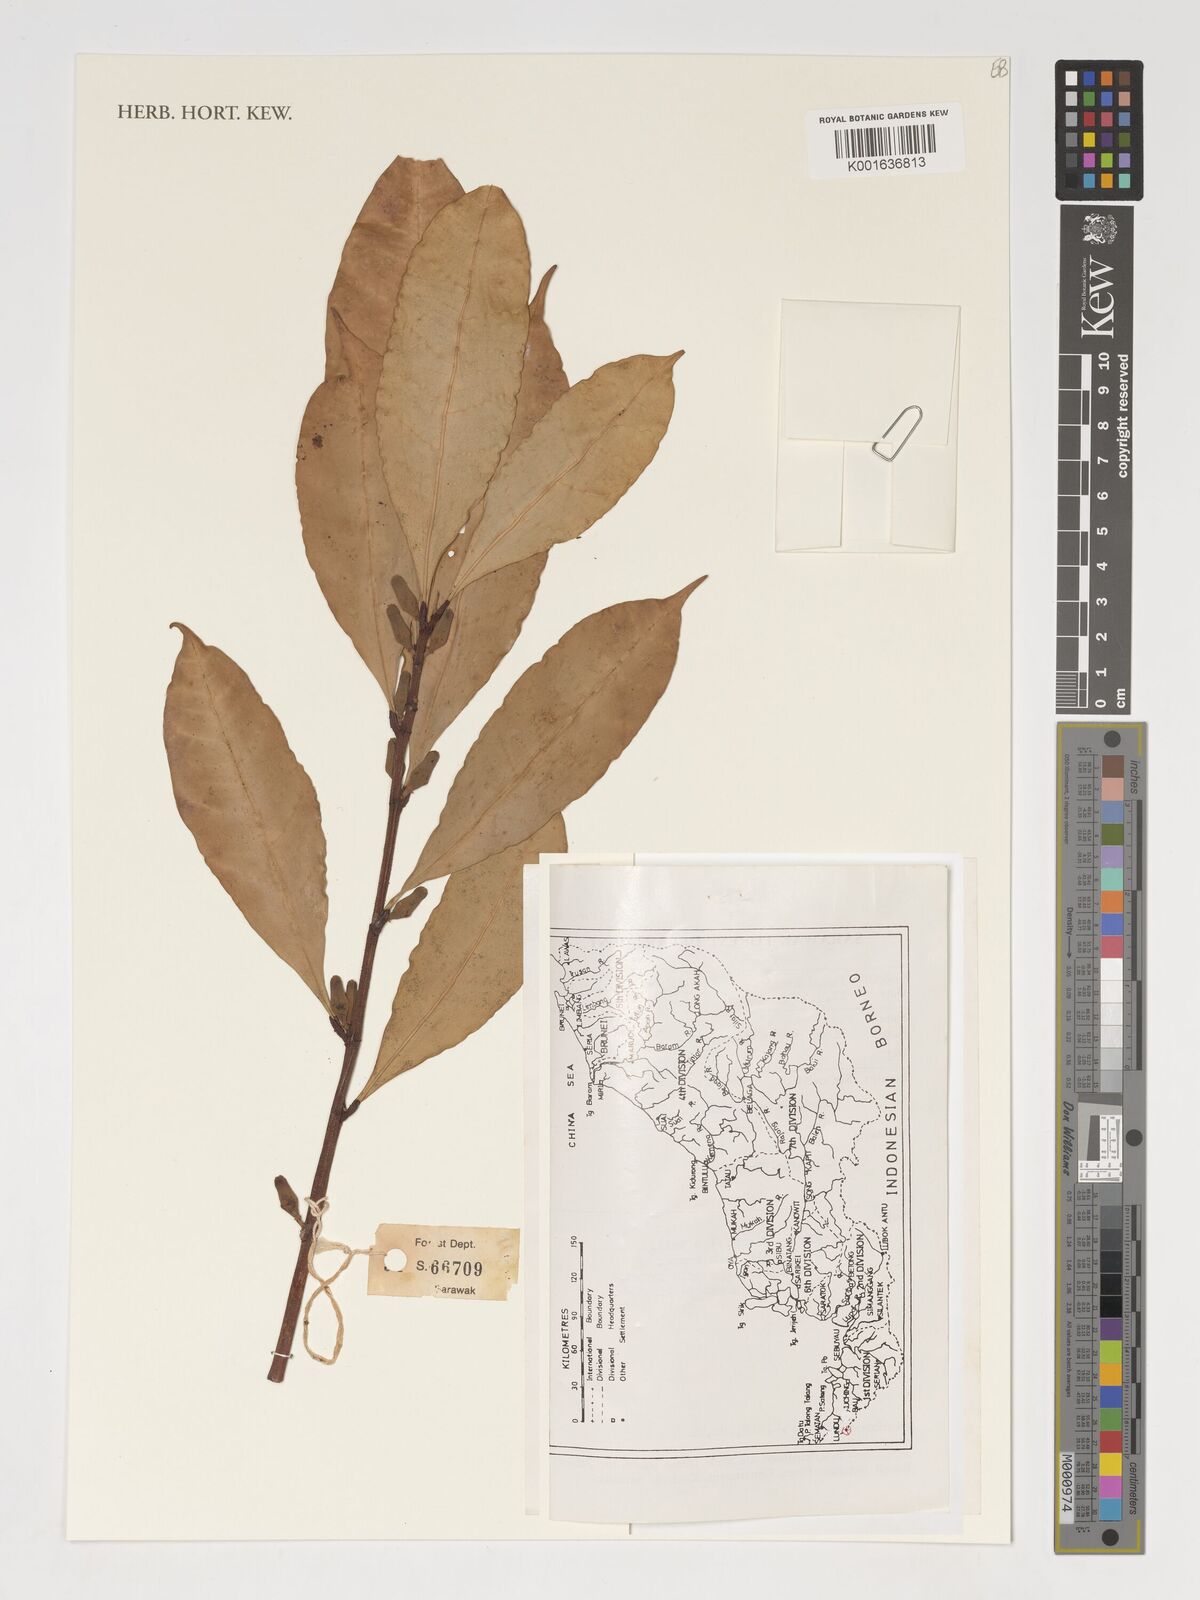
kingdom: Plantae
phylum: Tracheophyta
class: Magnoliopsida
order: Rosales
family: Moraceae
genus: Ficus
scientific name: Ficus obpyramidata
